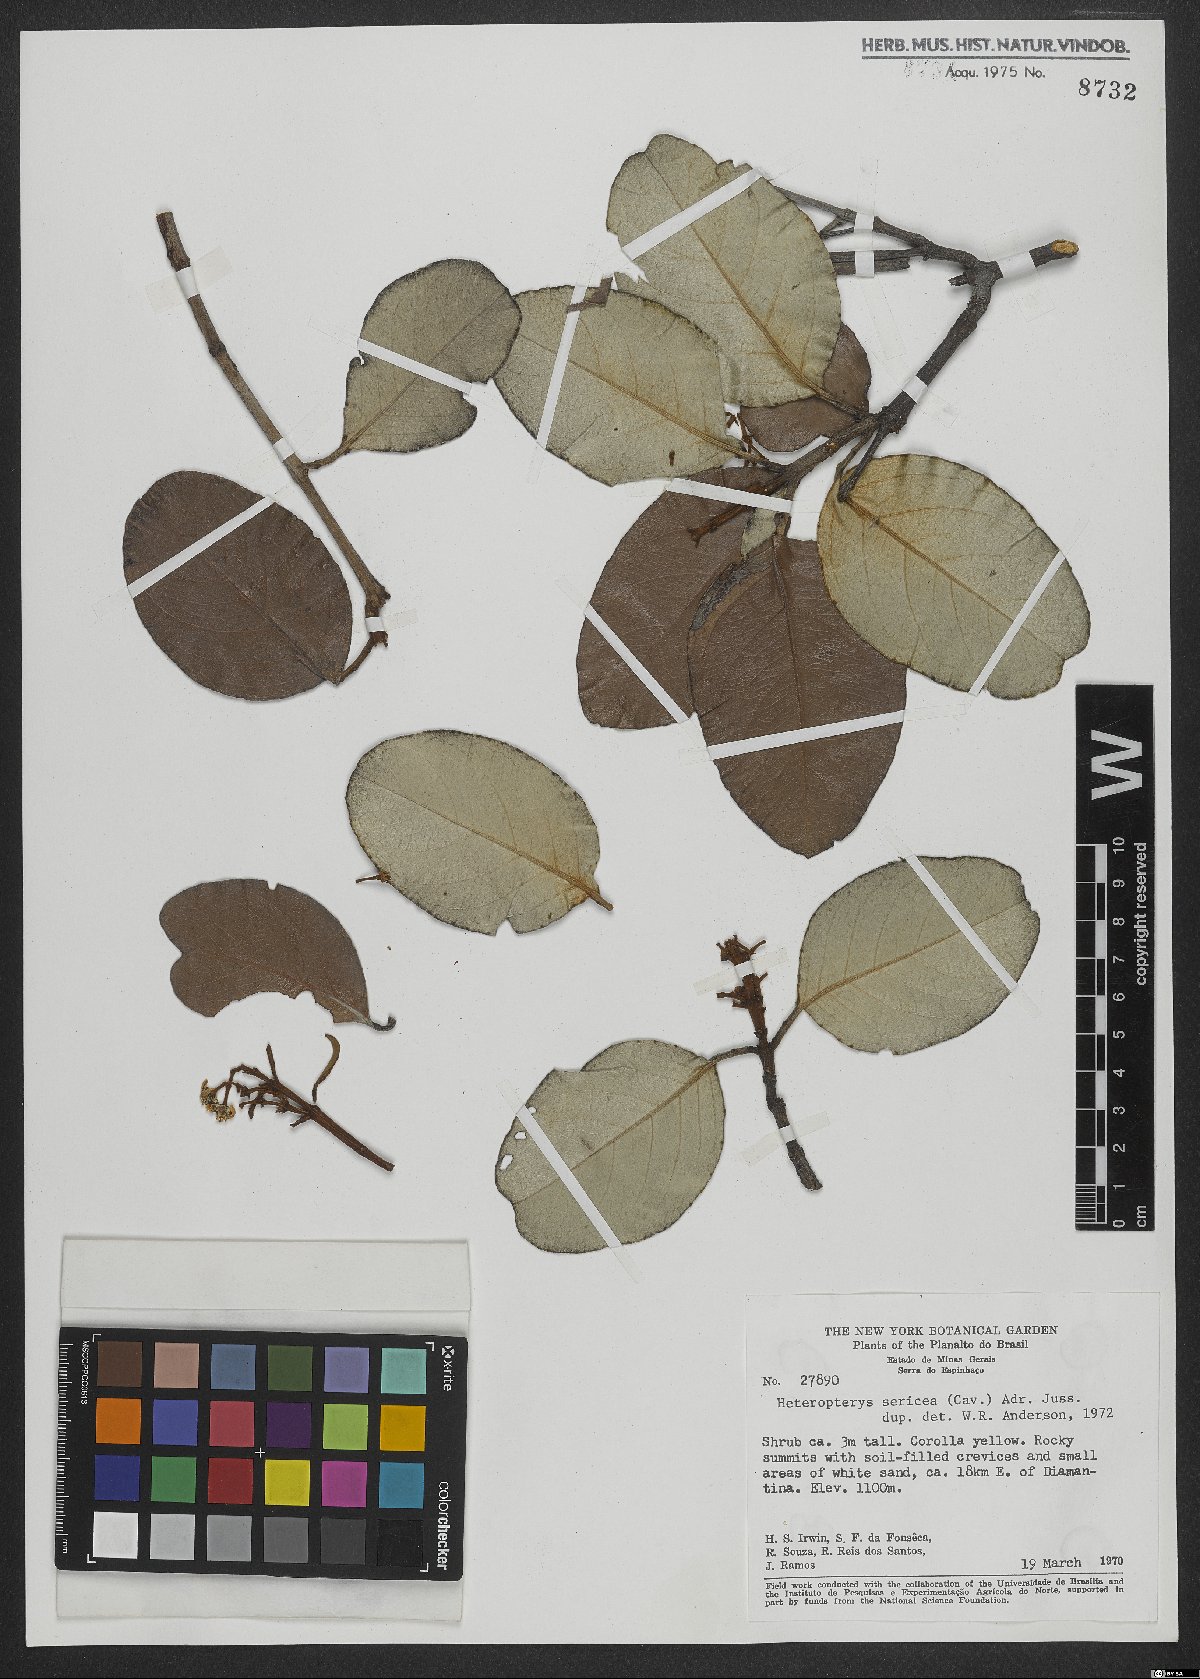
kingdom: Plantae
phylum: Tracheophyta
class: Magnoliopsida
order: Malpighiales
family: Malpighiaceae
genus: Heteropterys
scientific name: Heteropterys sericea
